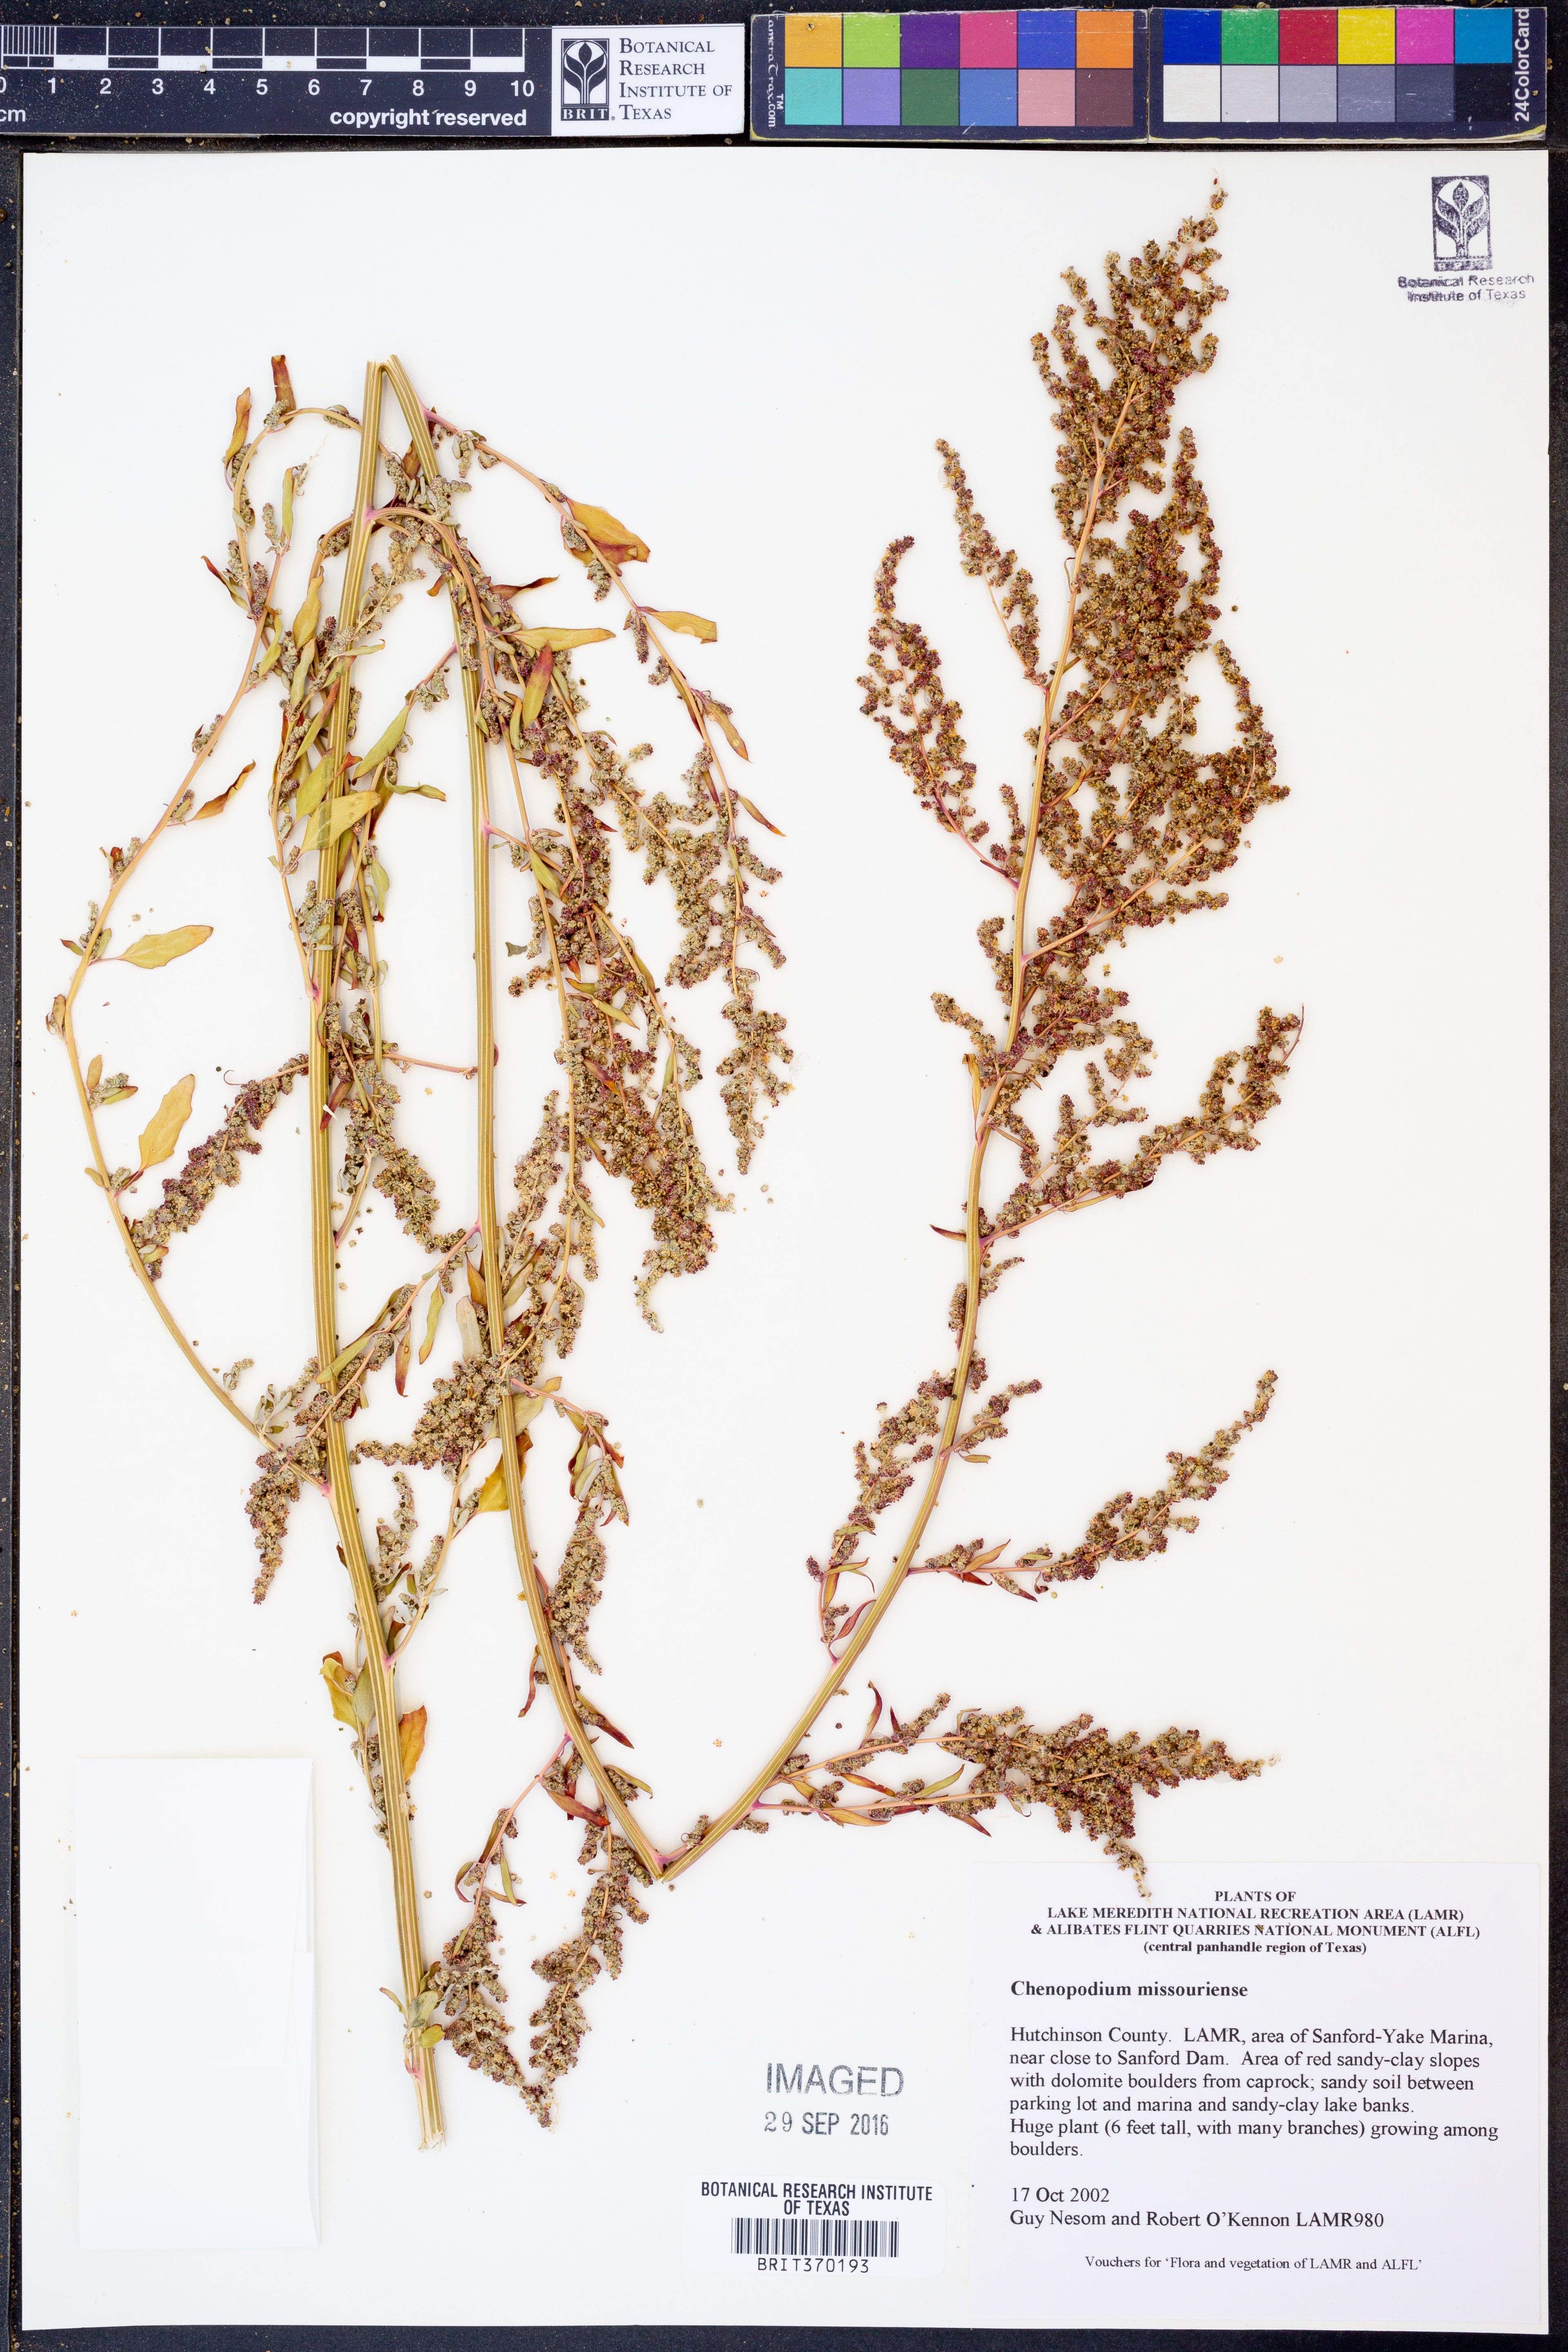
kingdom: Plantae
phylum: Tracheophyta
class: Magnoliopsida
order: Caryophyllales
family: Amaranthaceae
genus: Chenopodium
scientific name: Chenopodium album
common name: Fat-hen
